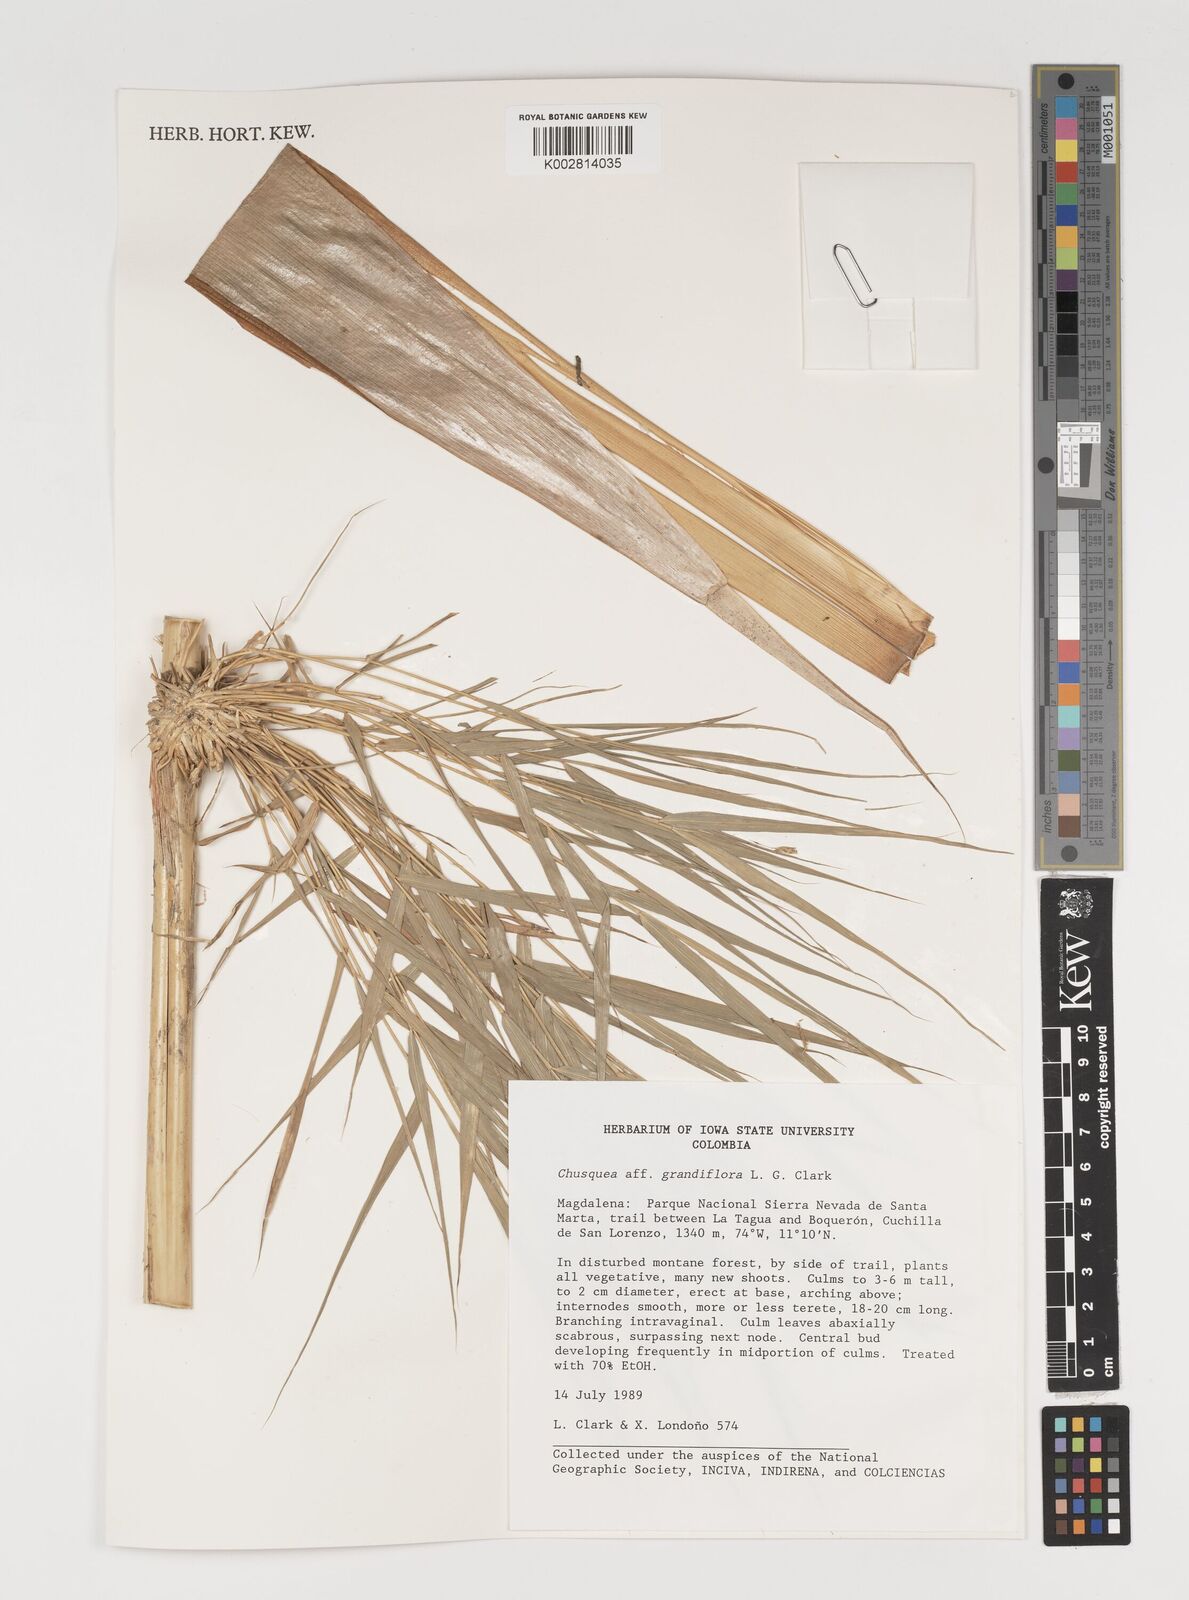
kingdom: Plantae
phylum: Tracheophyta
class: Liliopsida
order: Poales
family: Poaceae
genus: Chusquea
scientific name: Chusquea
